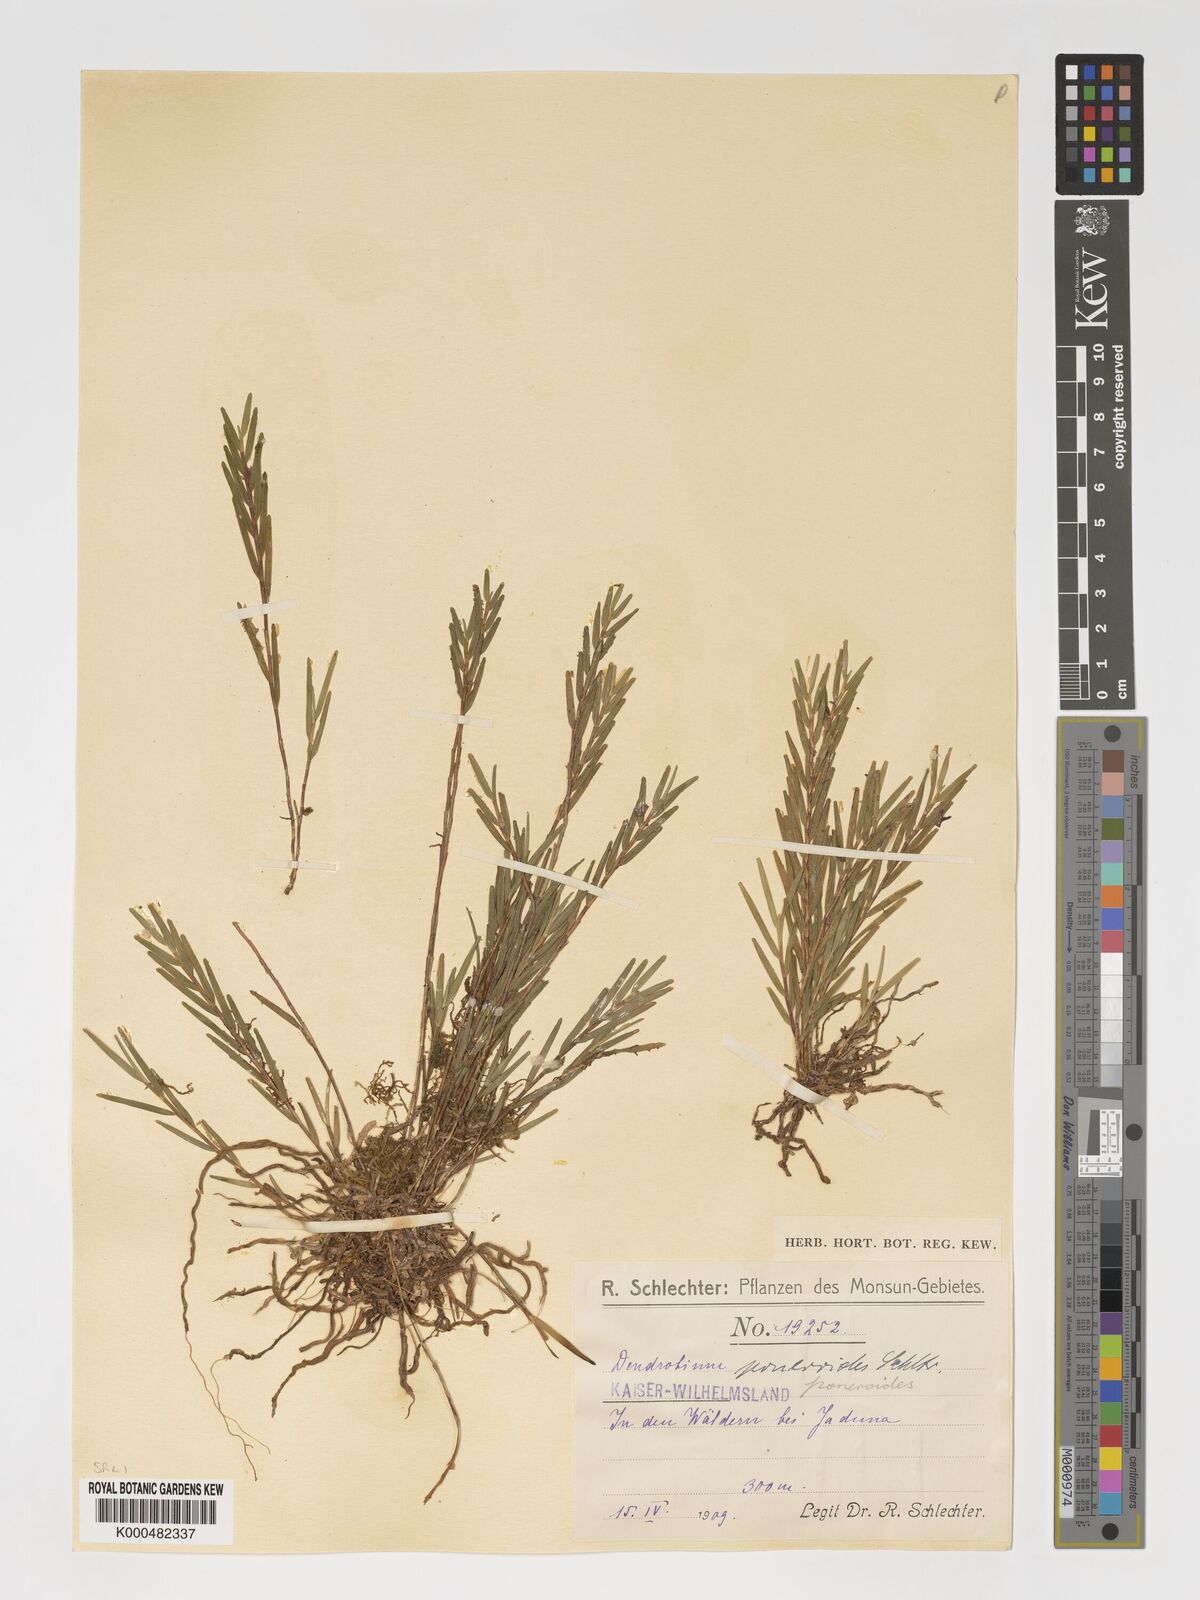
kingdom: Plantae
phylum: Tracheophyta
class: Liliopsida
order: Asparagales
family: Orchidaceae
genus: Dendrobium
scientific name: Dendrobium poneroides
